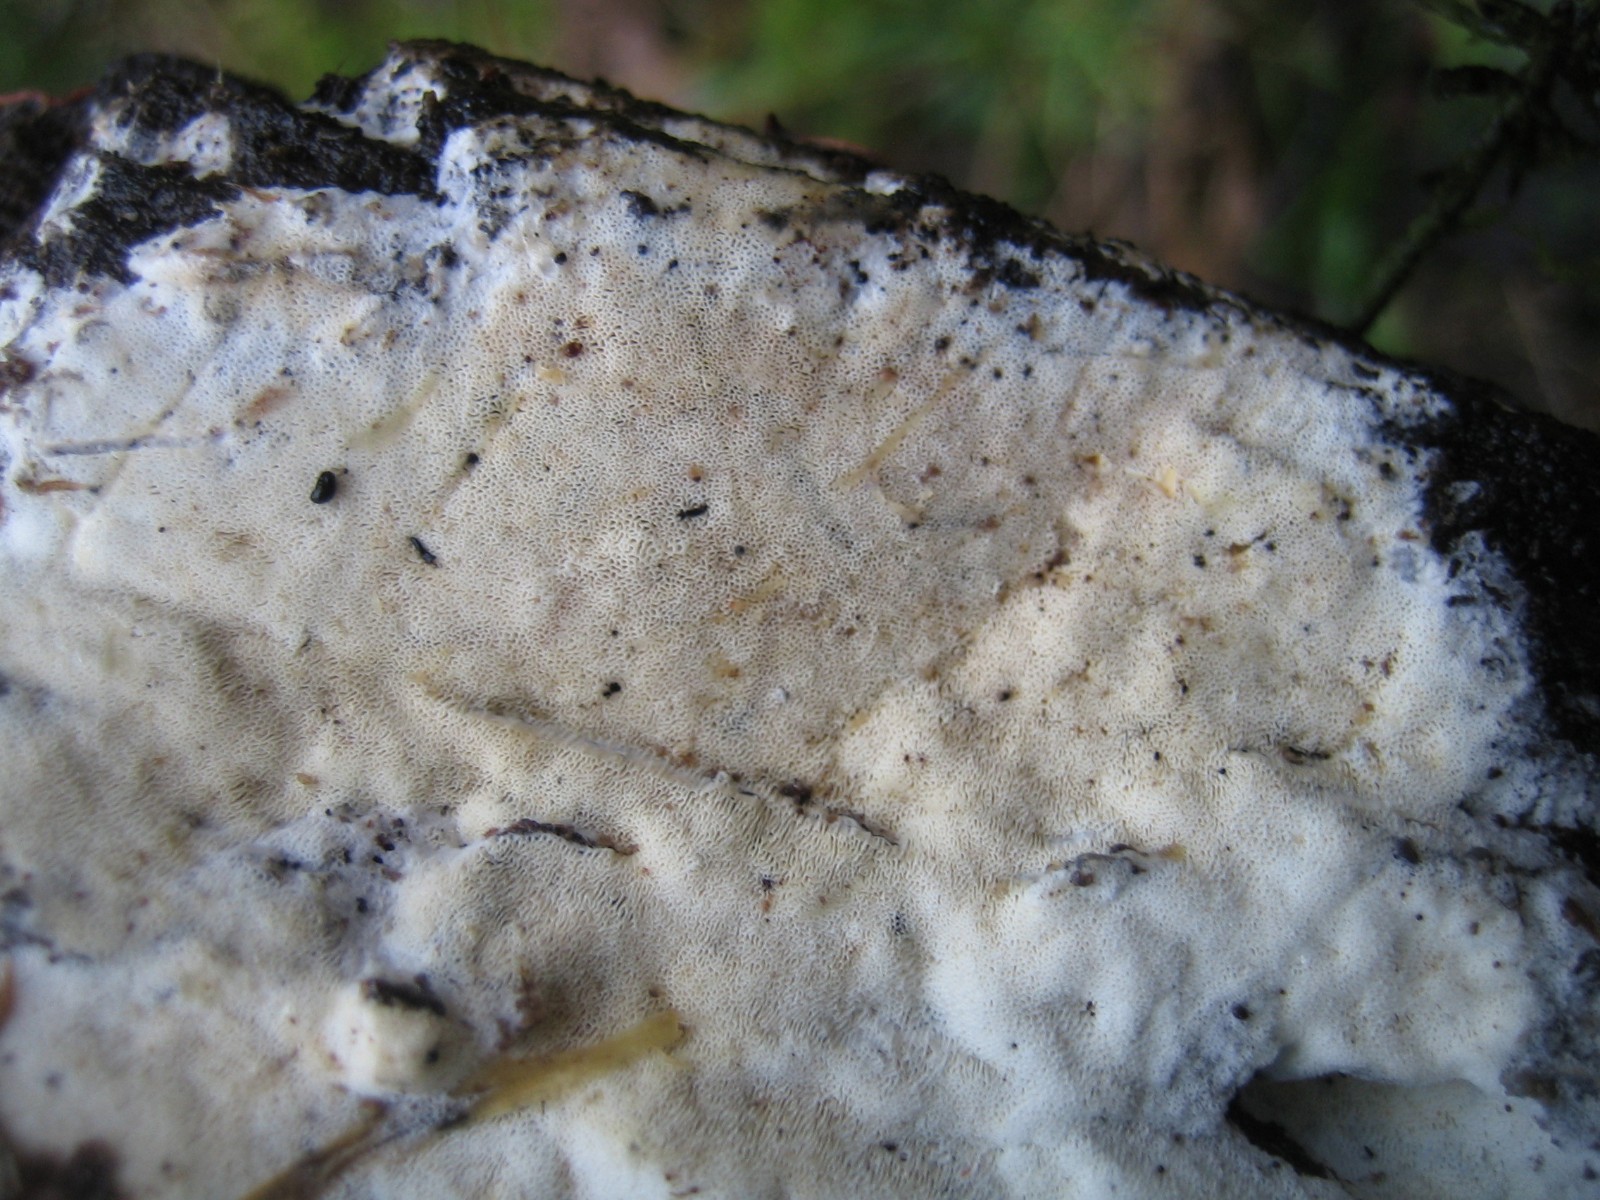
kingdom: Fungi
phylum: Basidiomycota
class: Agaricomycetes
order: Polyporales
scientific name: Polyporales
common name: poresvampordenen
